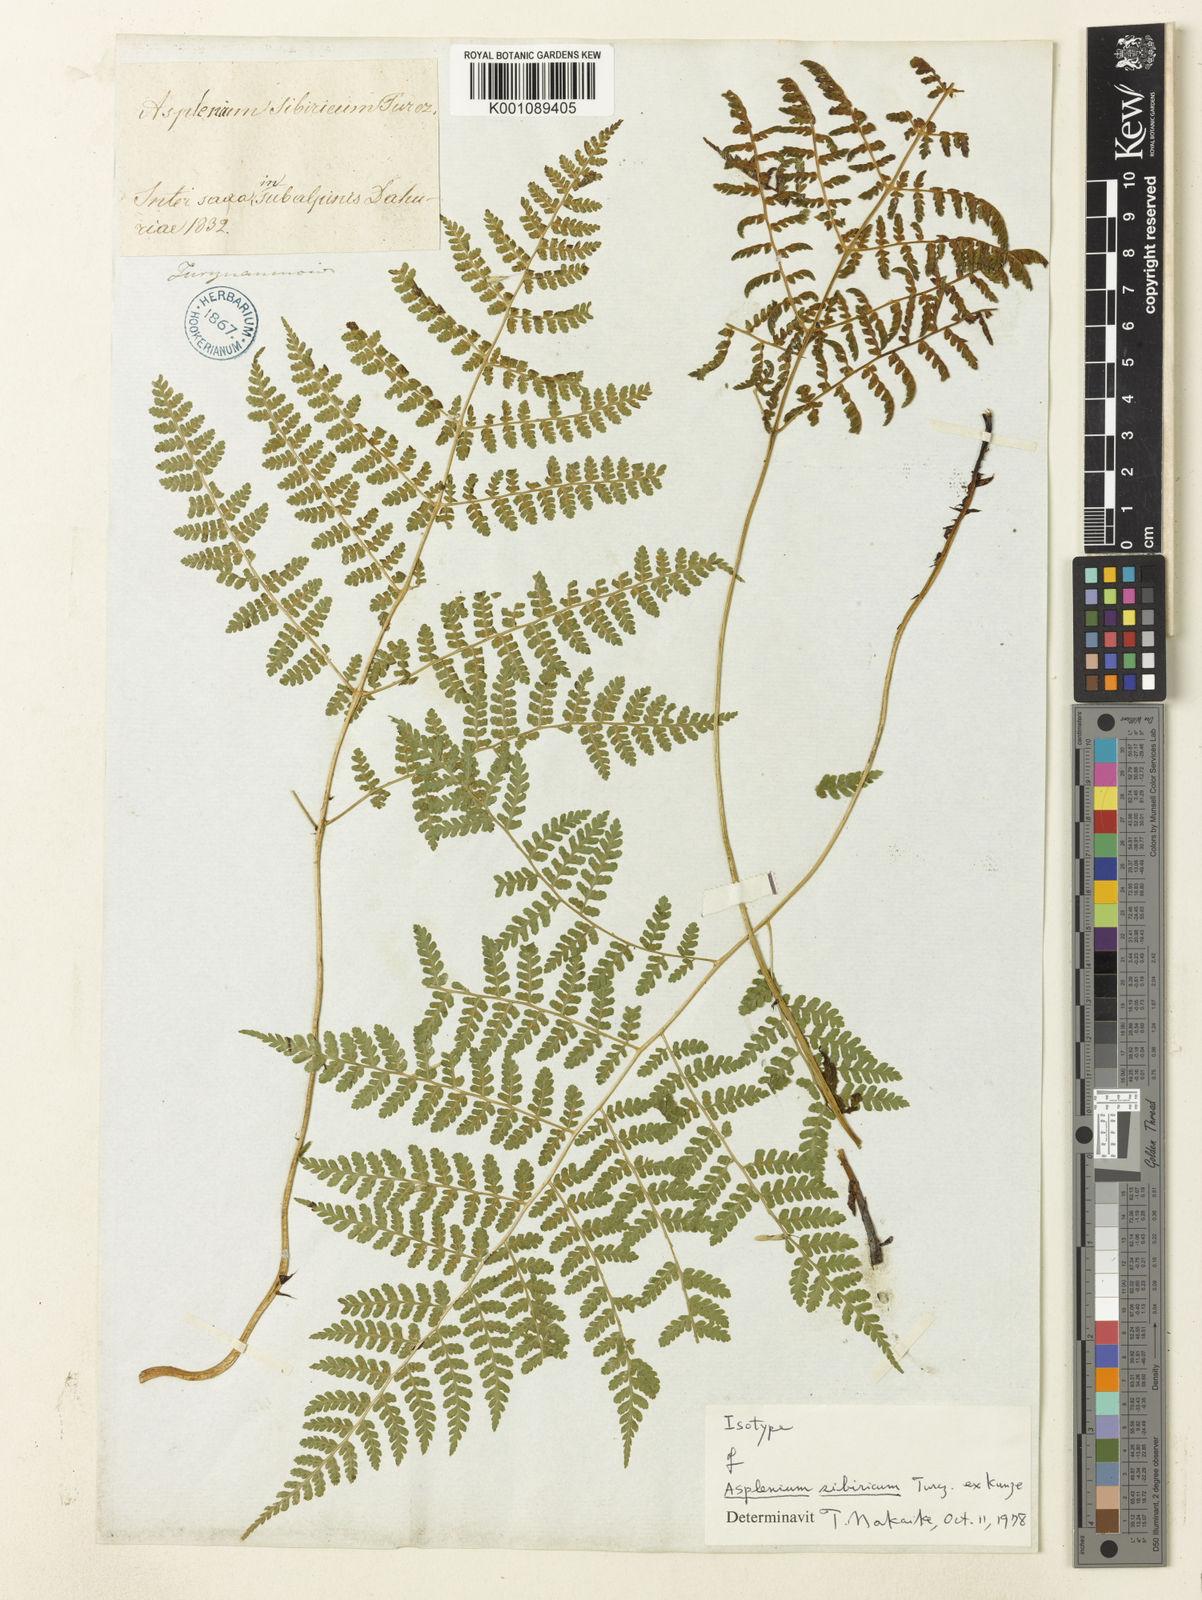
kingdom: Plantae
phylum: Tracheophyta
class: Polypodiopsida
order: Polypodiales
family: Athyriaceae
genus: Diplazium
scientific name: Diplazium sibiricum
